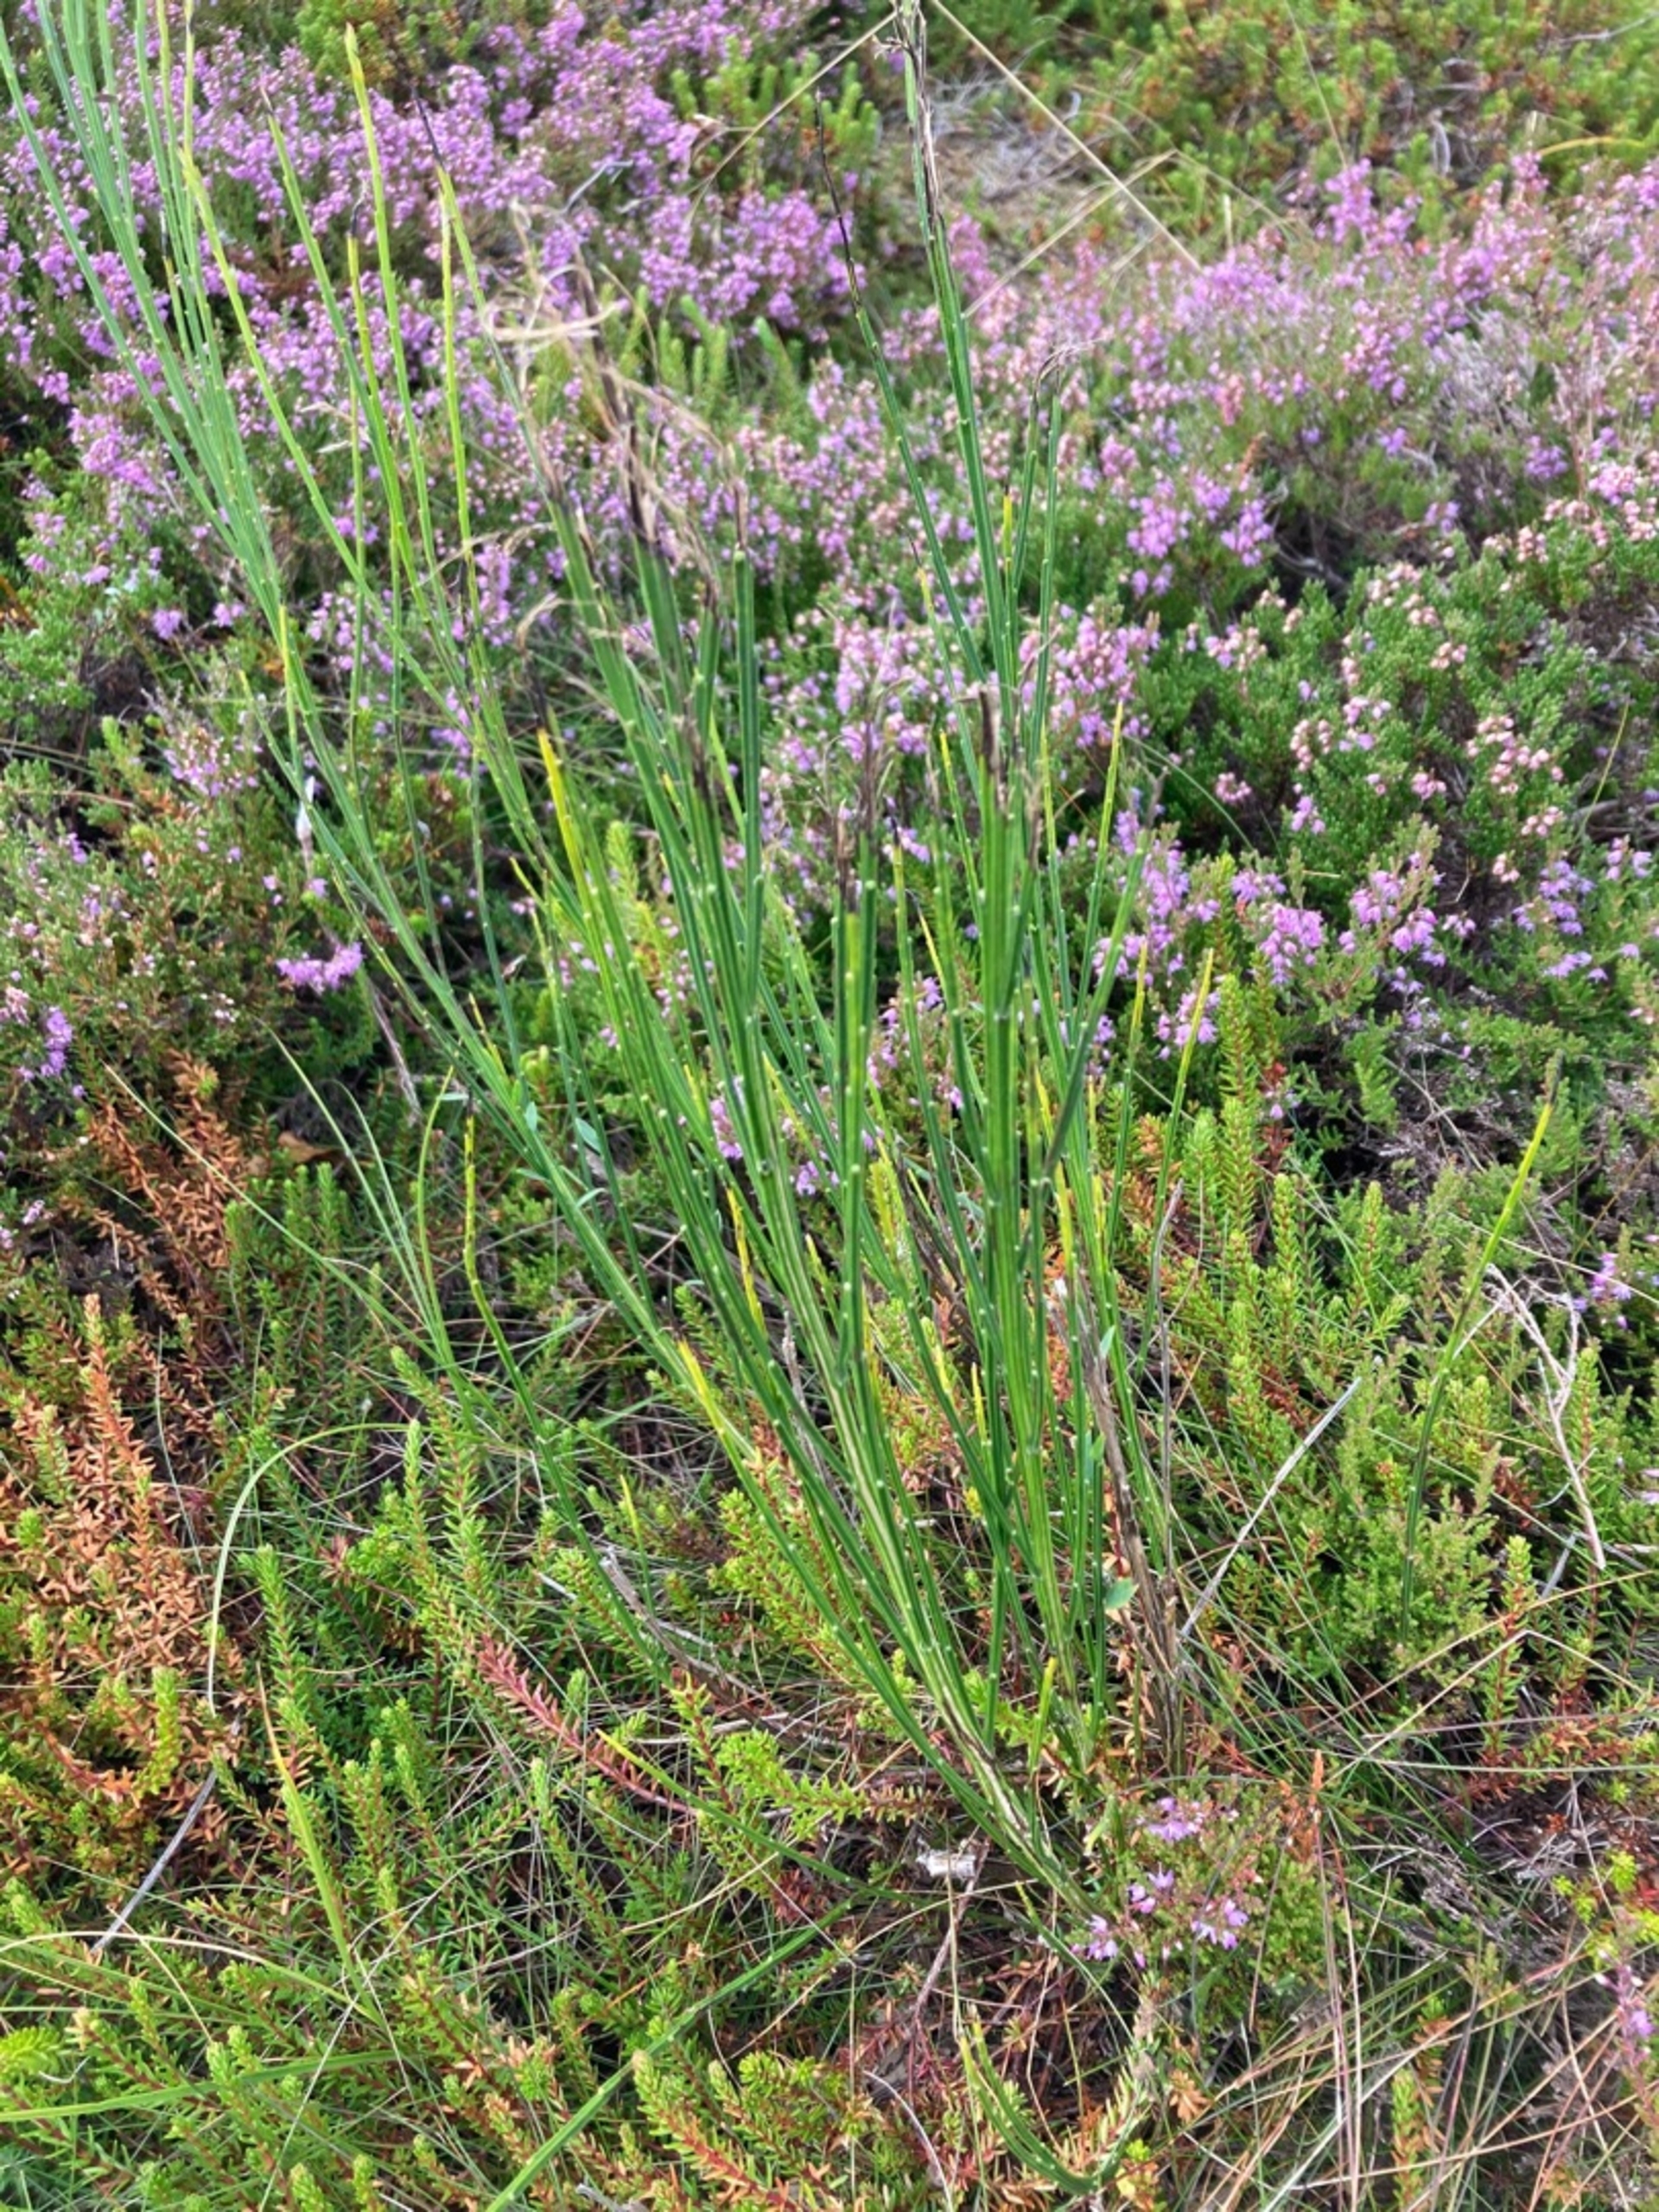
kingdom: Plantae
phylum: Tracheophyta
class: Magnoliopsida
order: Fabales
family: Fabaceae
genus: Cytisus
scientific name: Cytisus scoparius
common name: Almindelig gyvel
